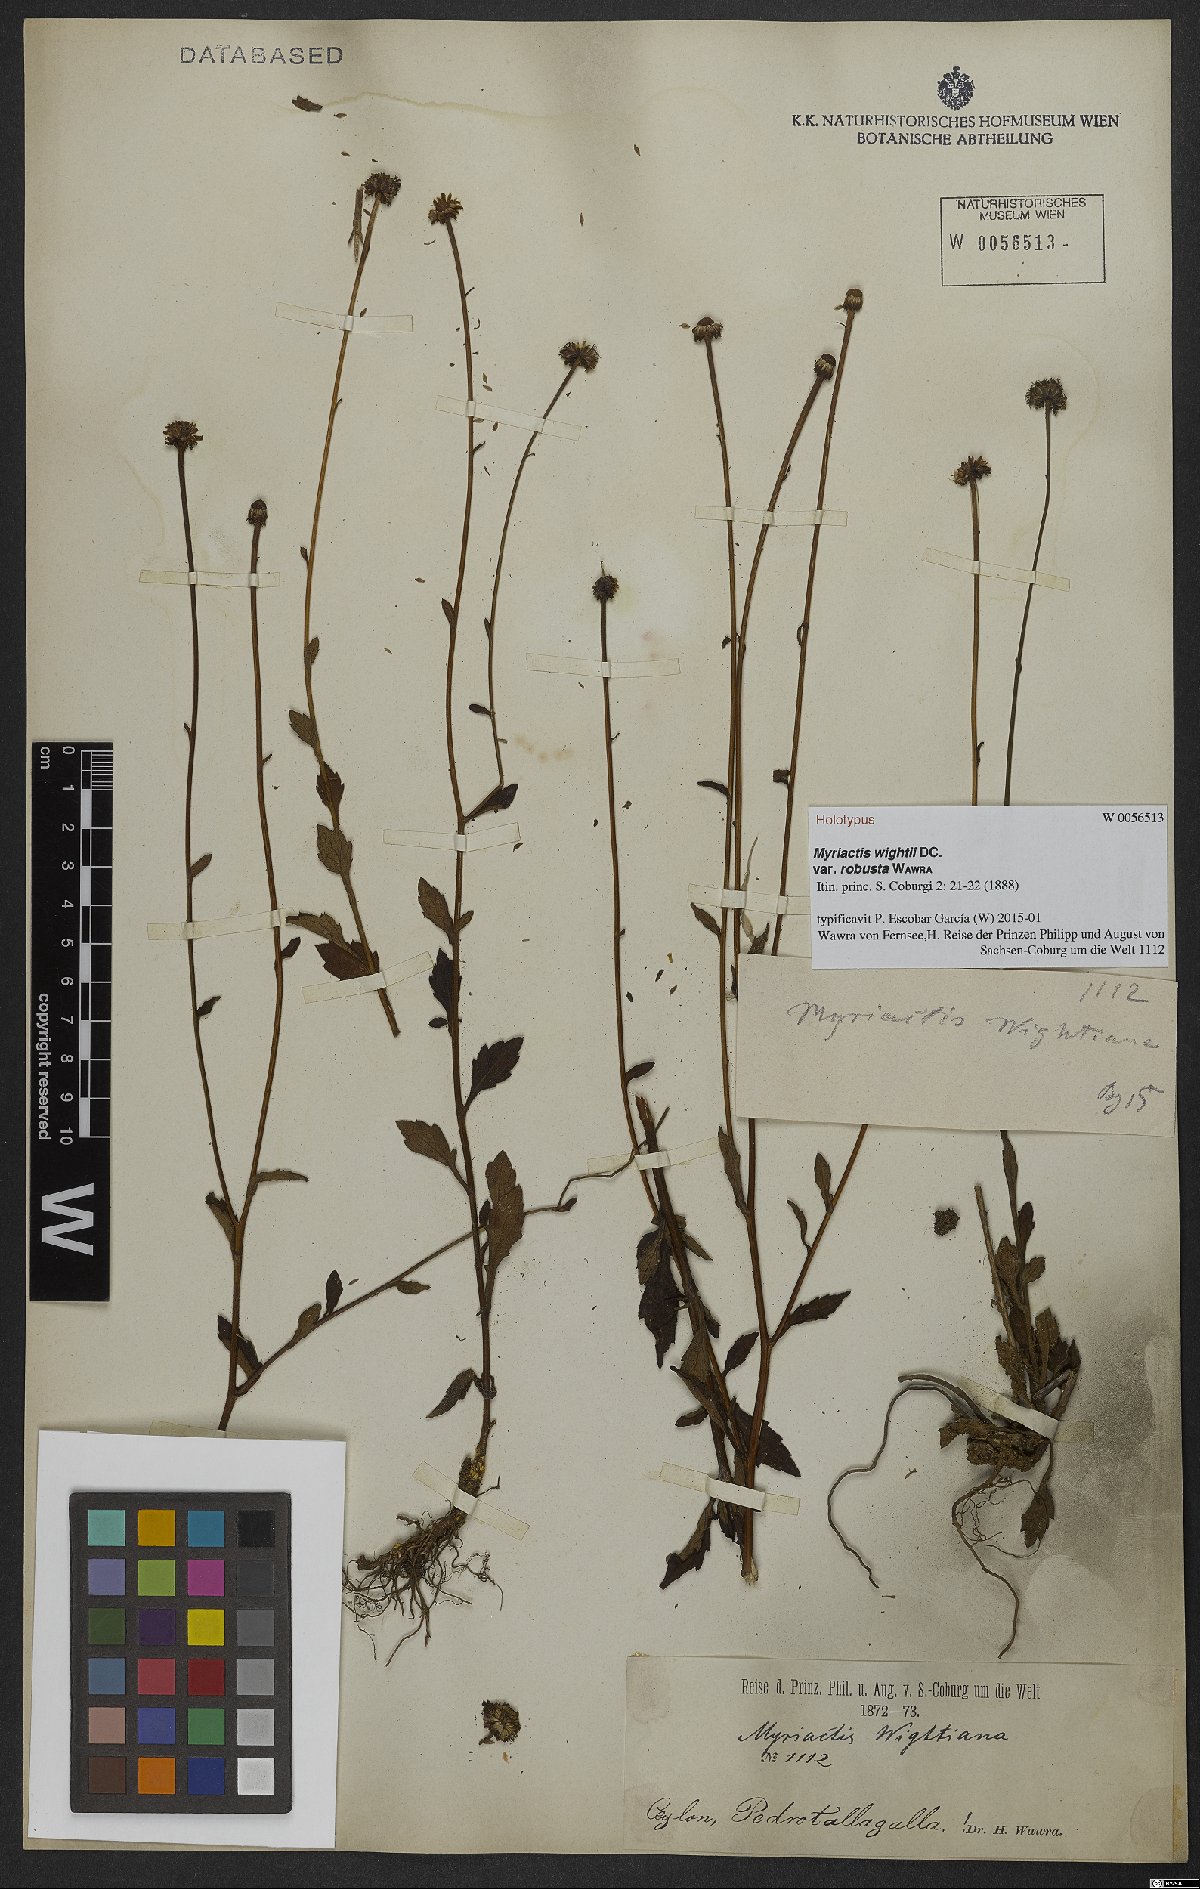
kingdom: Plantae
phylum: Tracheophyta
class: Magnoliopsida
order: Asterales
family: Asteraceae
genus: Myriactis
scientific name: Myriactis wightii
